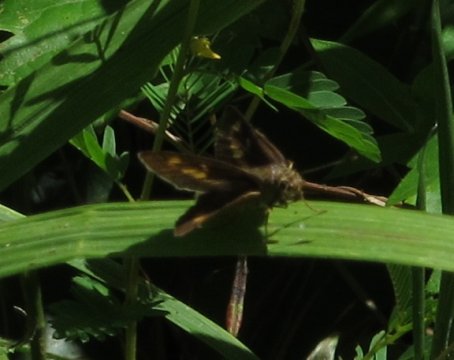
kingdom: Animalia
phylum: Arthropoda
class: Insecta
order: Lepidoptera
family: Hesperiidae
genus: Problema
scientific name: Problema byssus
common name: Byssus Skipper
